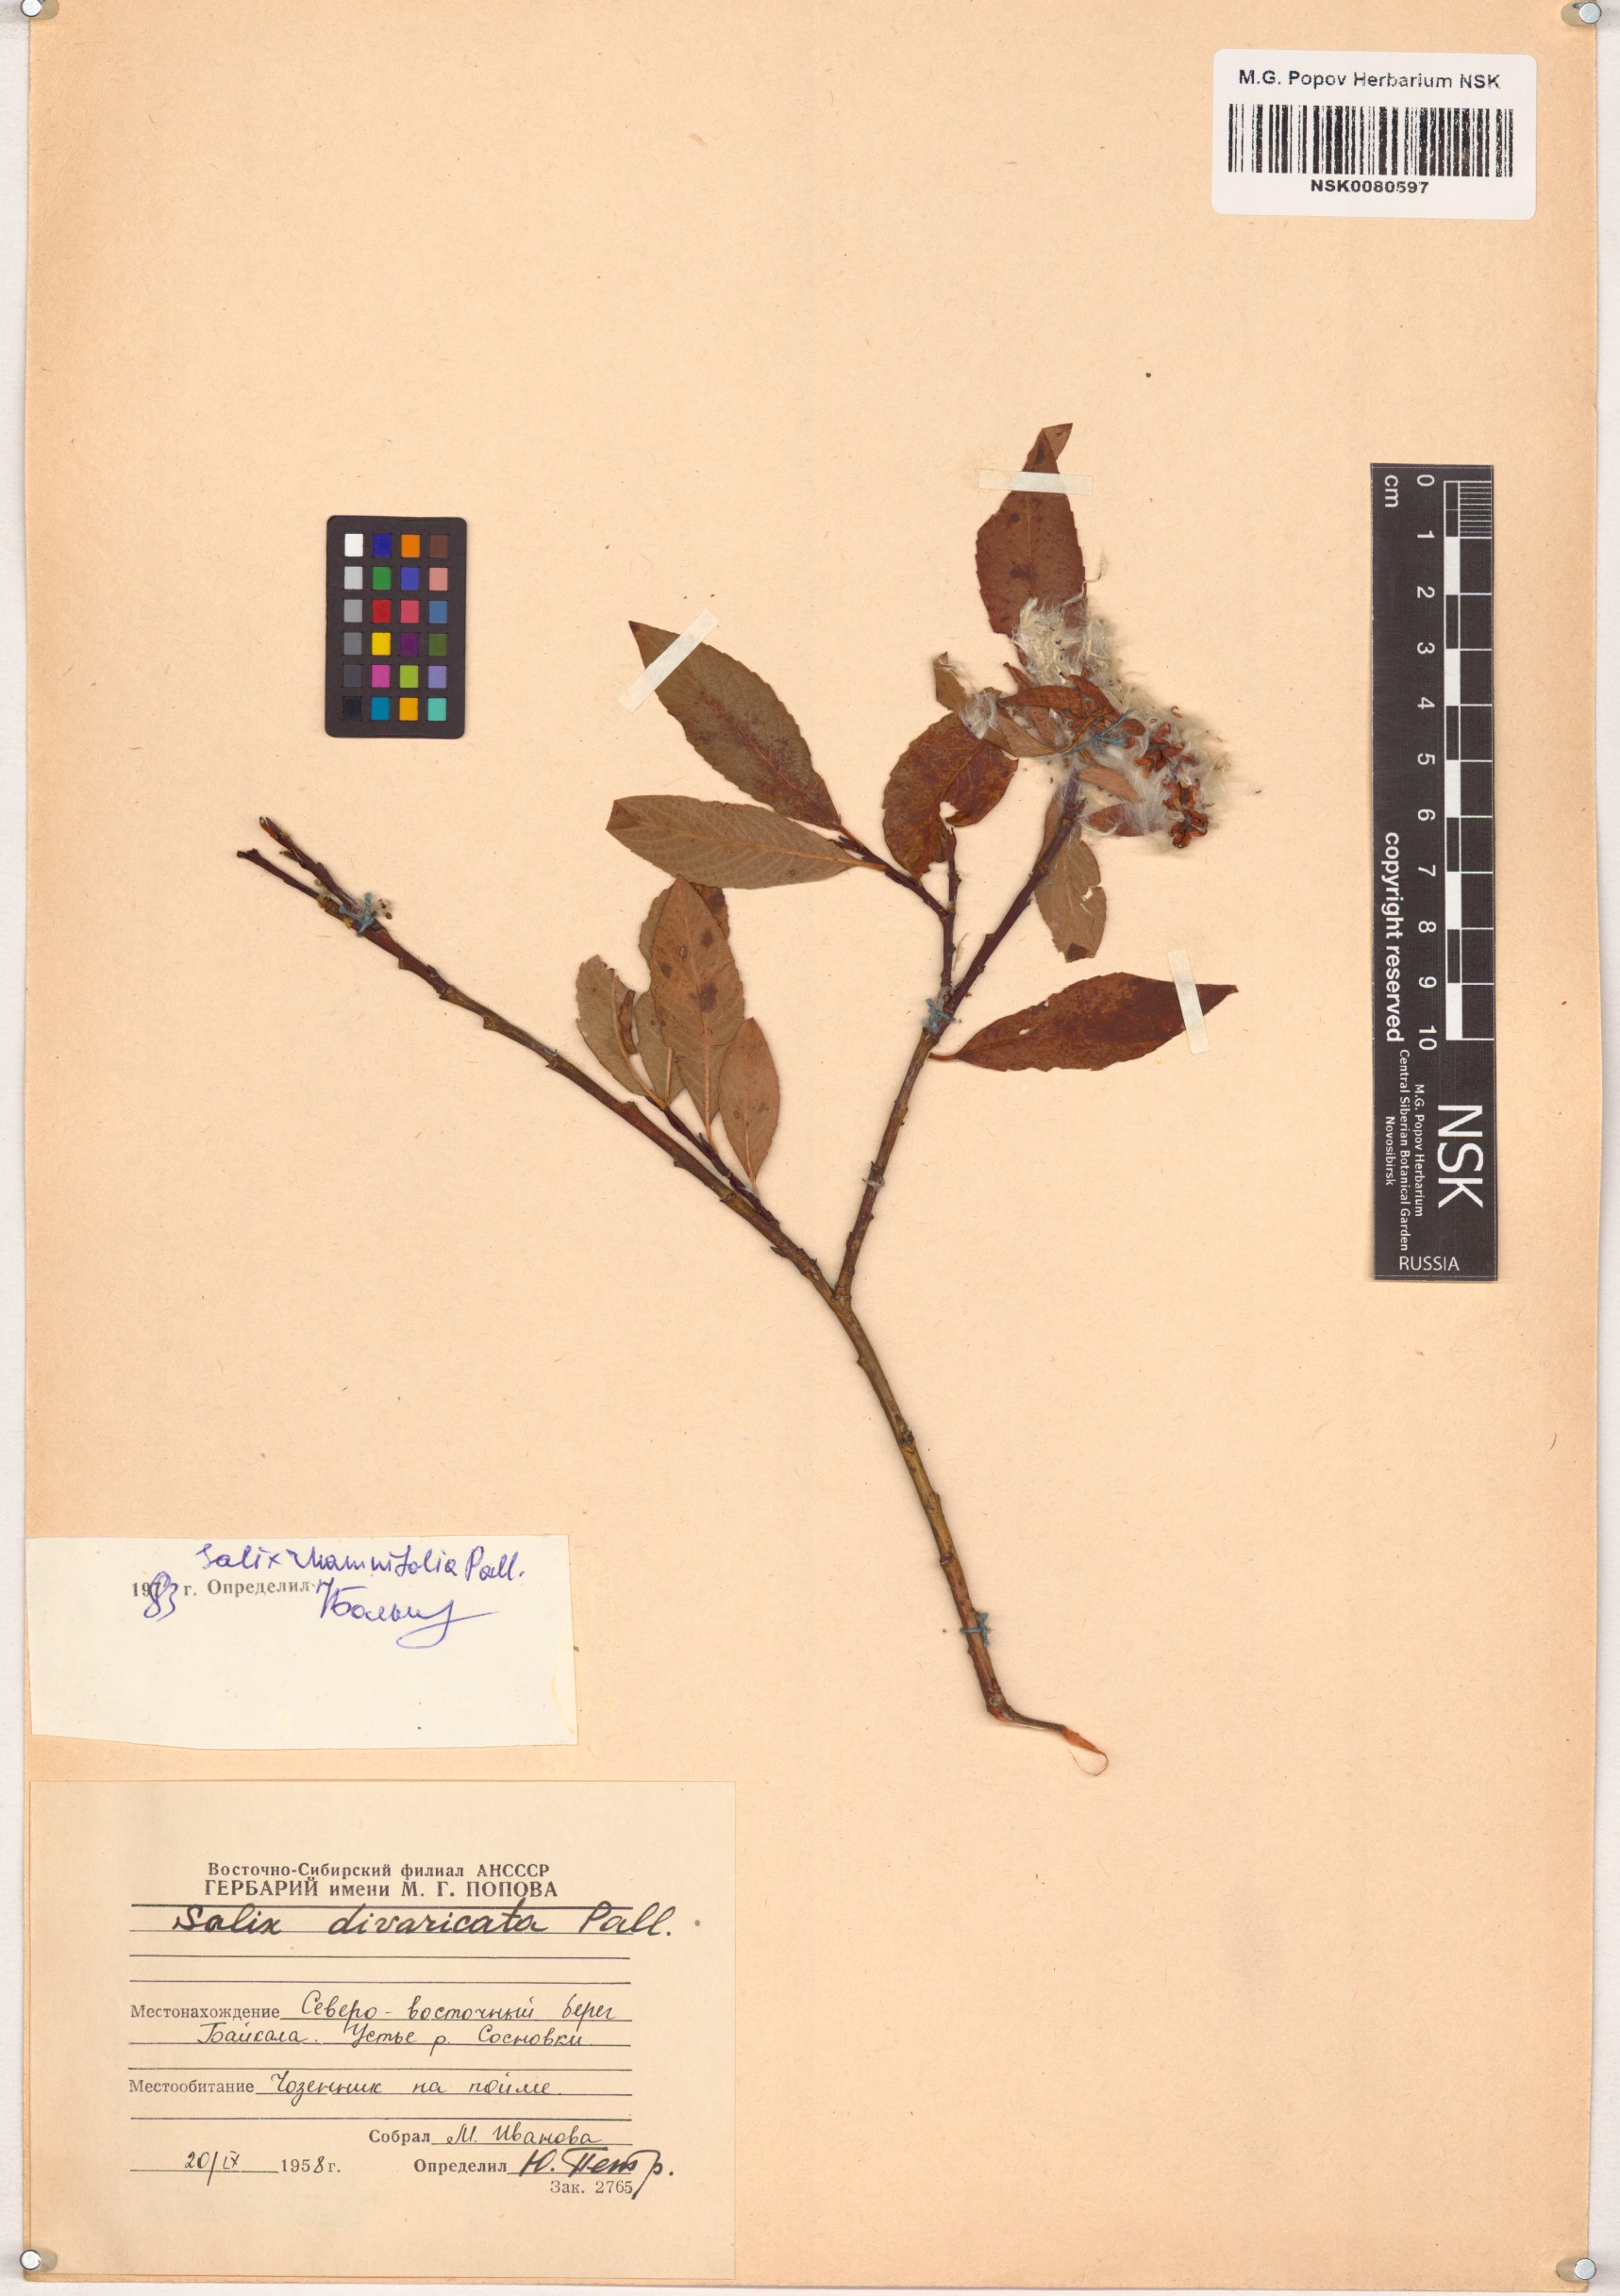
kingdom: Plantae
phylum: Tracheophyta
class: Magnoliopsida
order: Malpighiales
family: Salicaceae
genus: Salix
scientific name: Salix rhamnifolia
